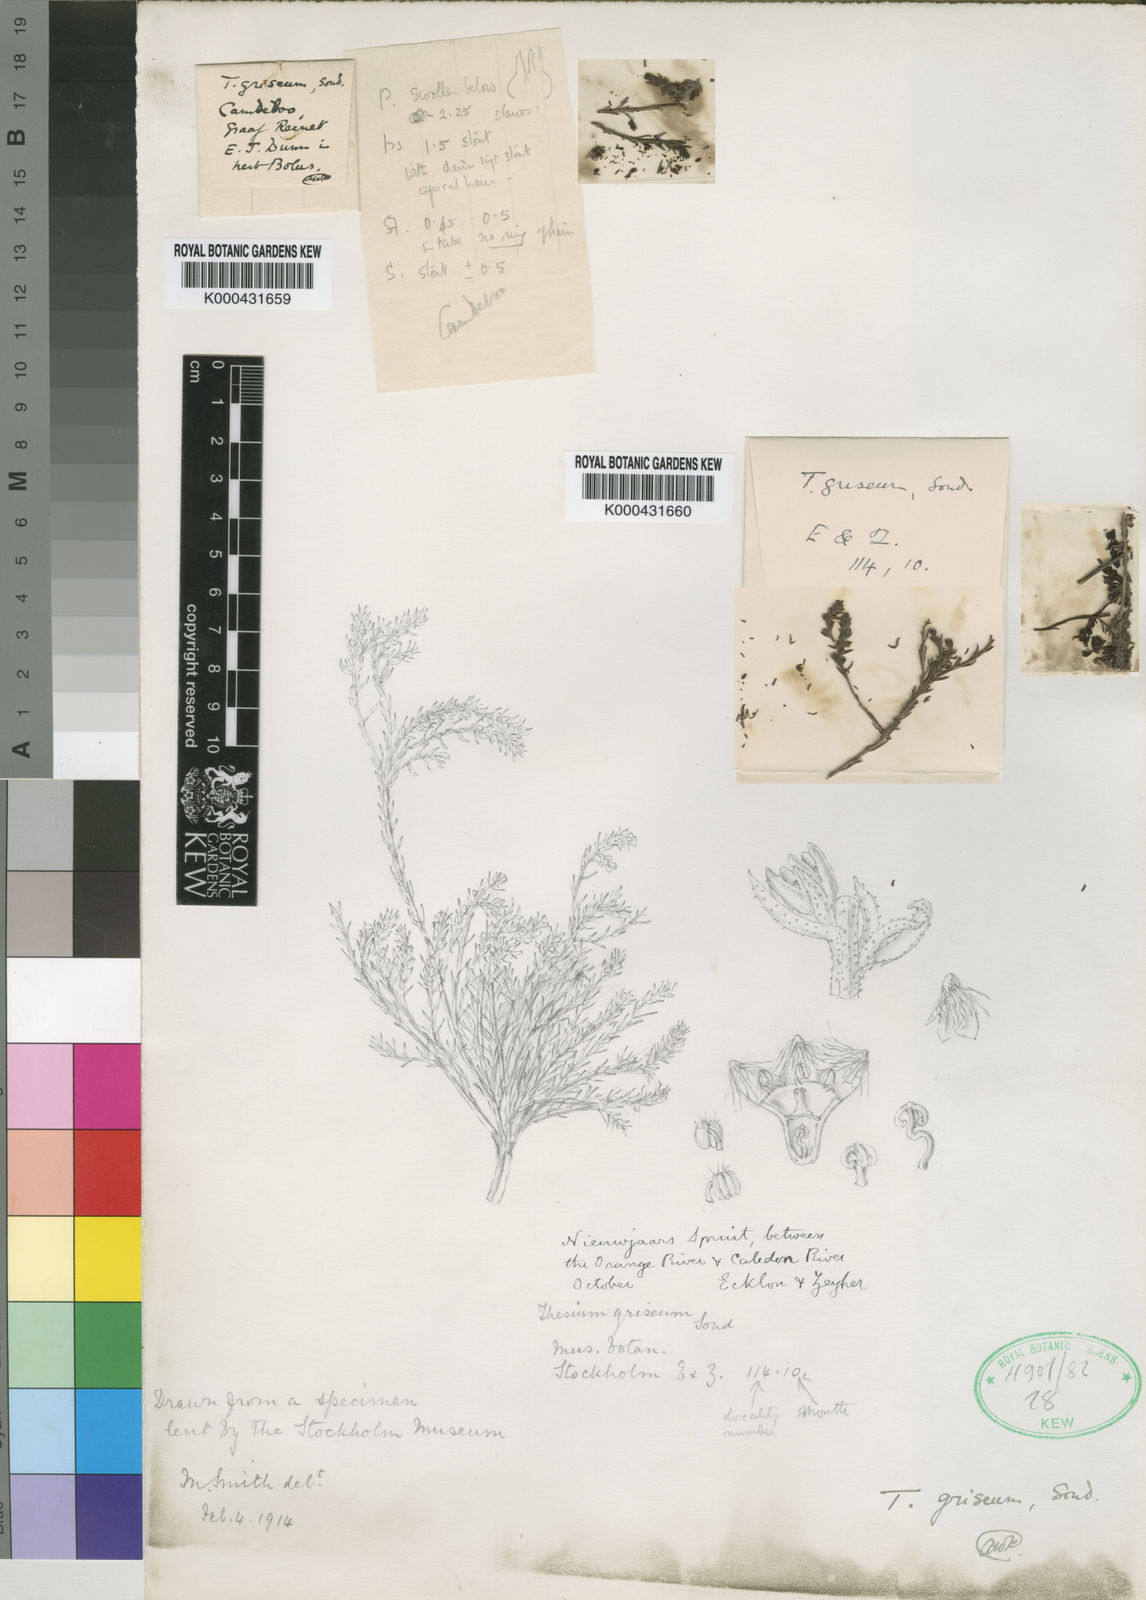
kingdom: Plantae
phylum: Tracheophyta
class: Magnoliopsida
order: Santalales
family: Thesiaceae
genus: Thesium
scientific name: Thesium griseum
